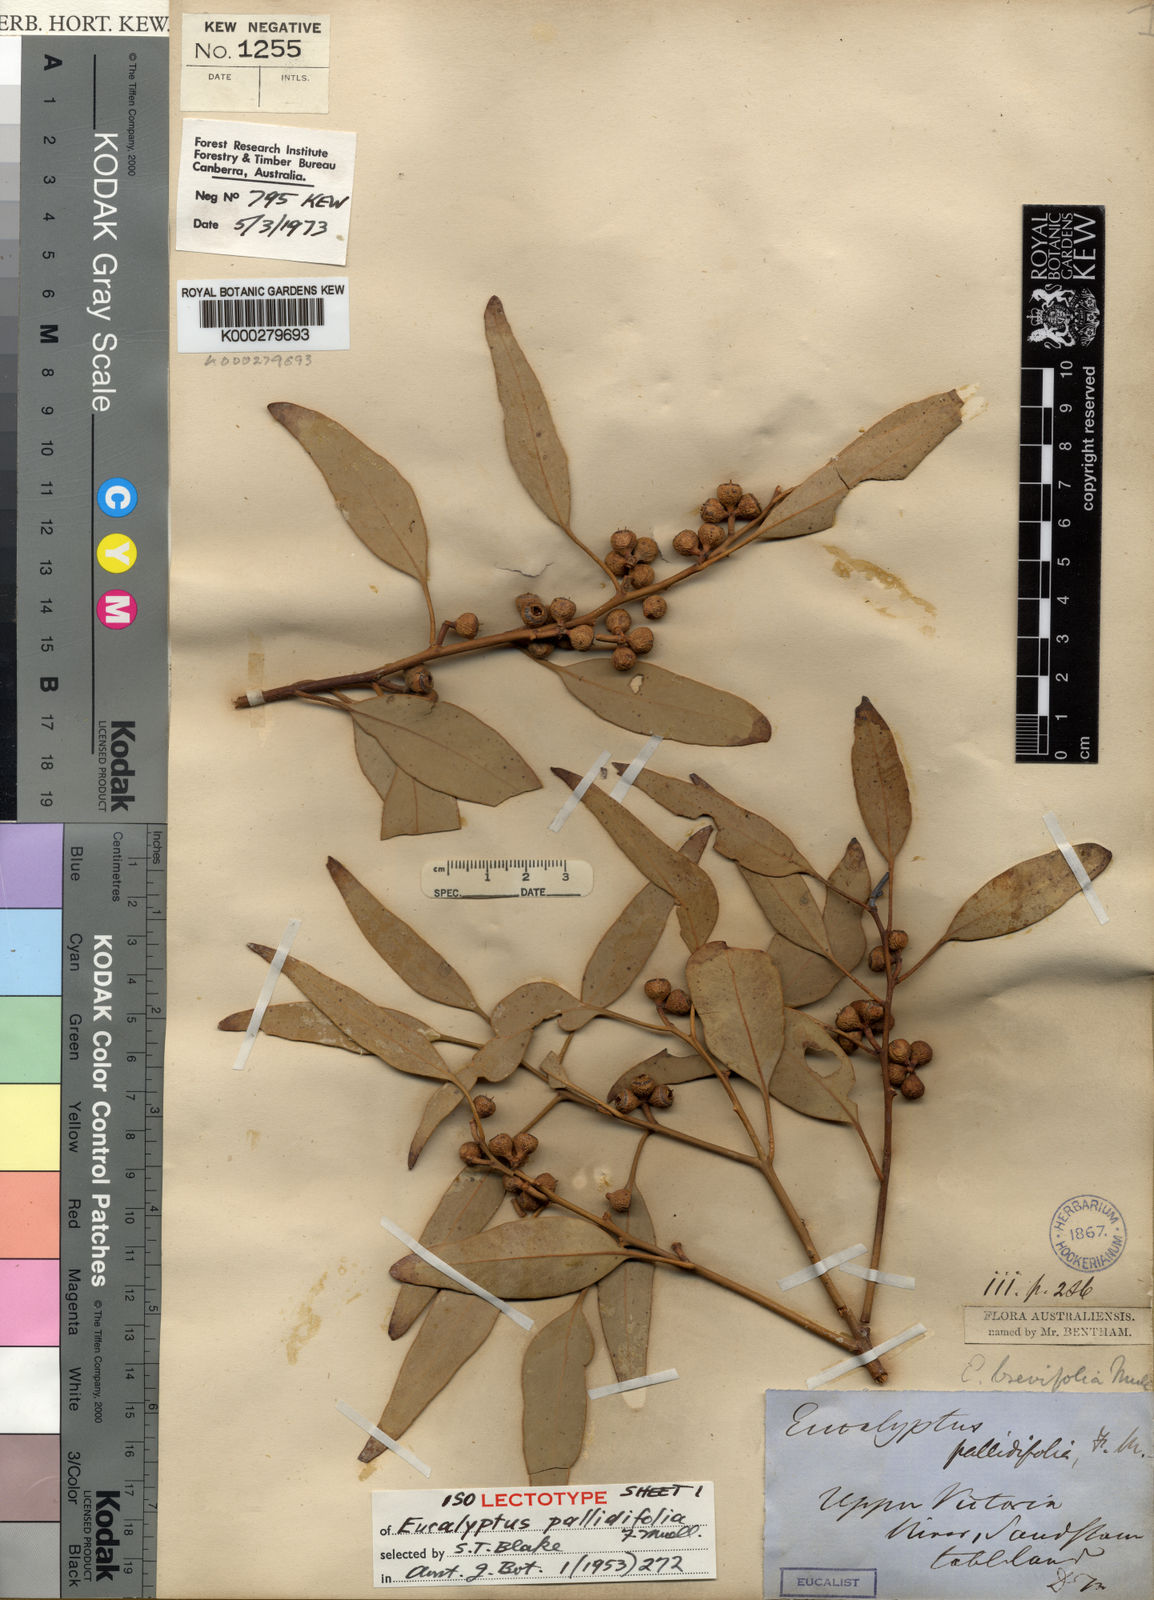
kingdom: Plantae
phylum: Tracheophyta
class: Magnoliopsida
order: Myrtales
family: Myrtaceae
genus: Eucalyptus
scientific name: Eucalyptus brevifolia
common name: Northern-white-gum
